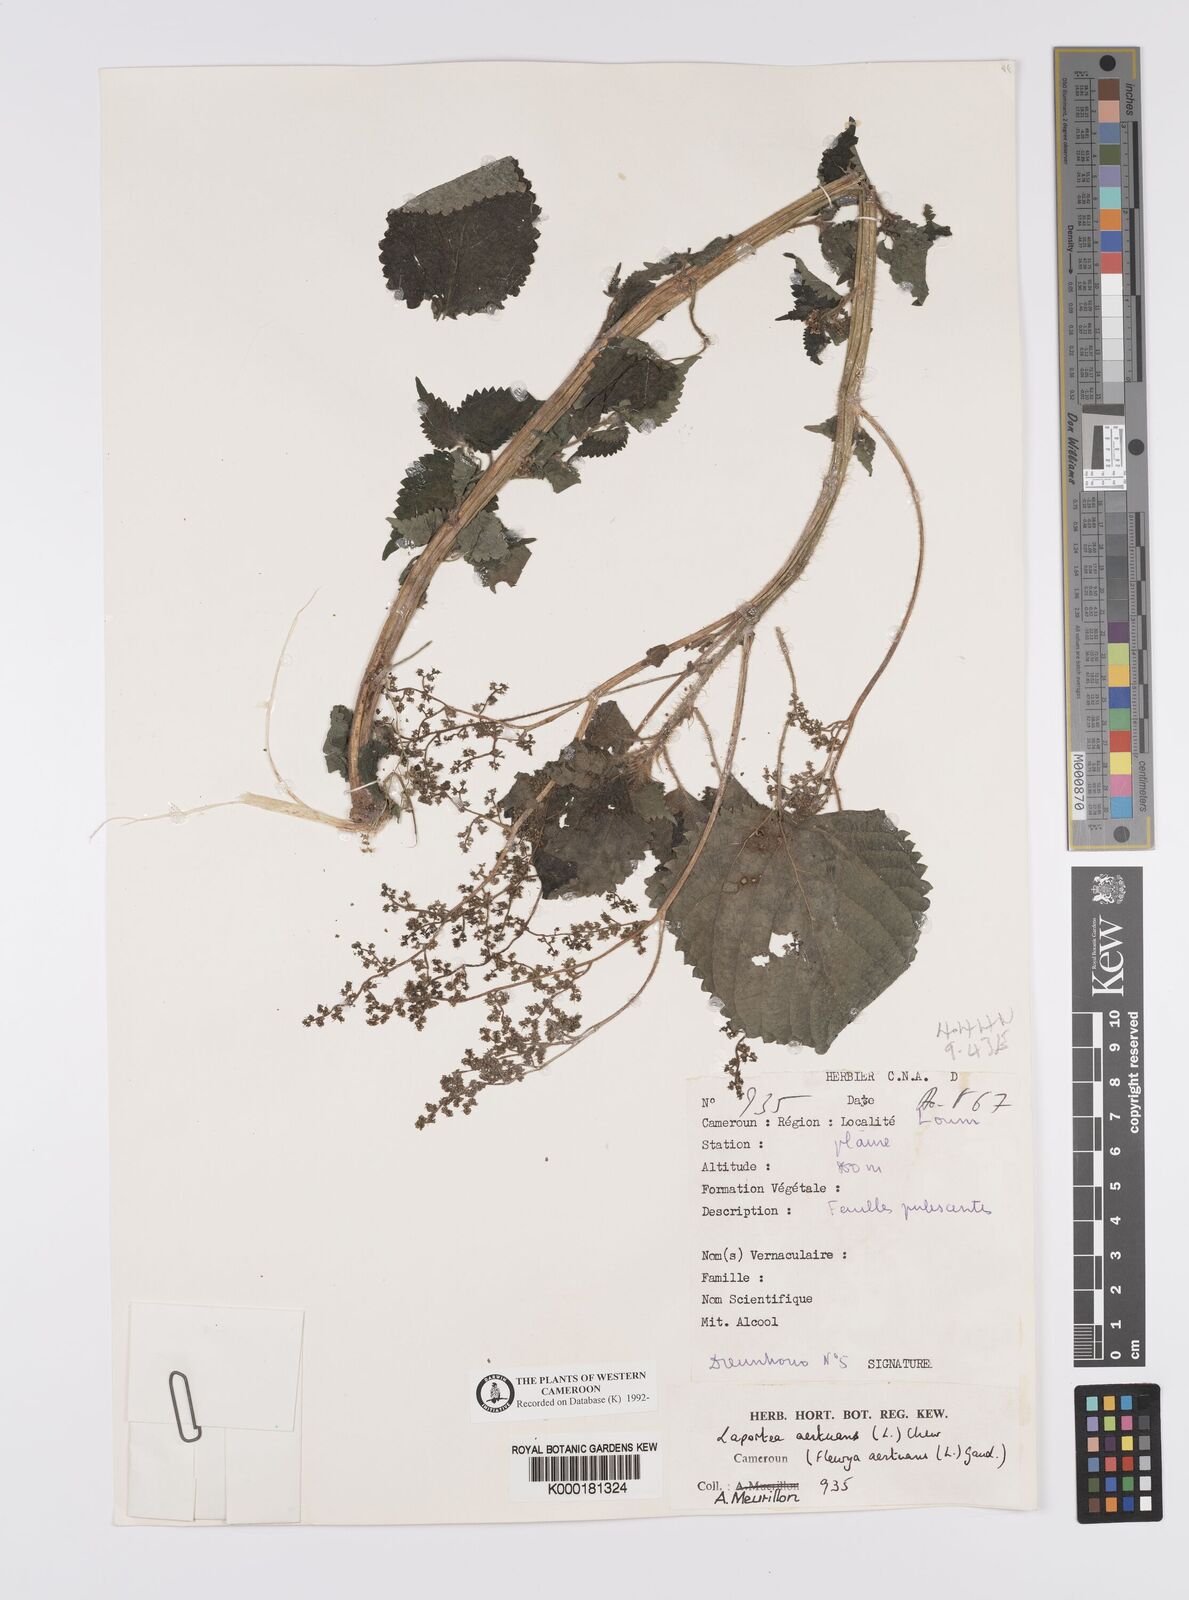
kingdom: Plantae
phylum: Tracheophyta
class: Magnoliopsida
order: Rosales
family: Urticaceae
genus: Laportea
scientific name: Laportea aestuans
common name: West indian woodnettle
